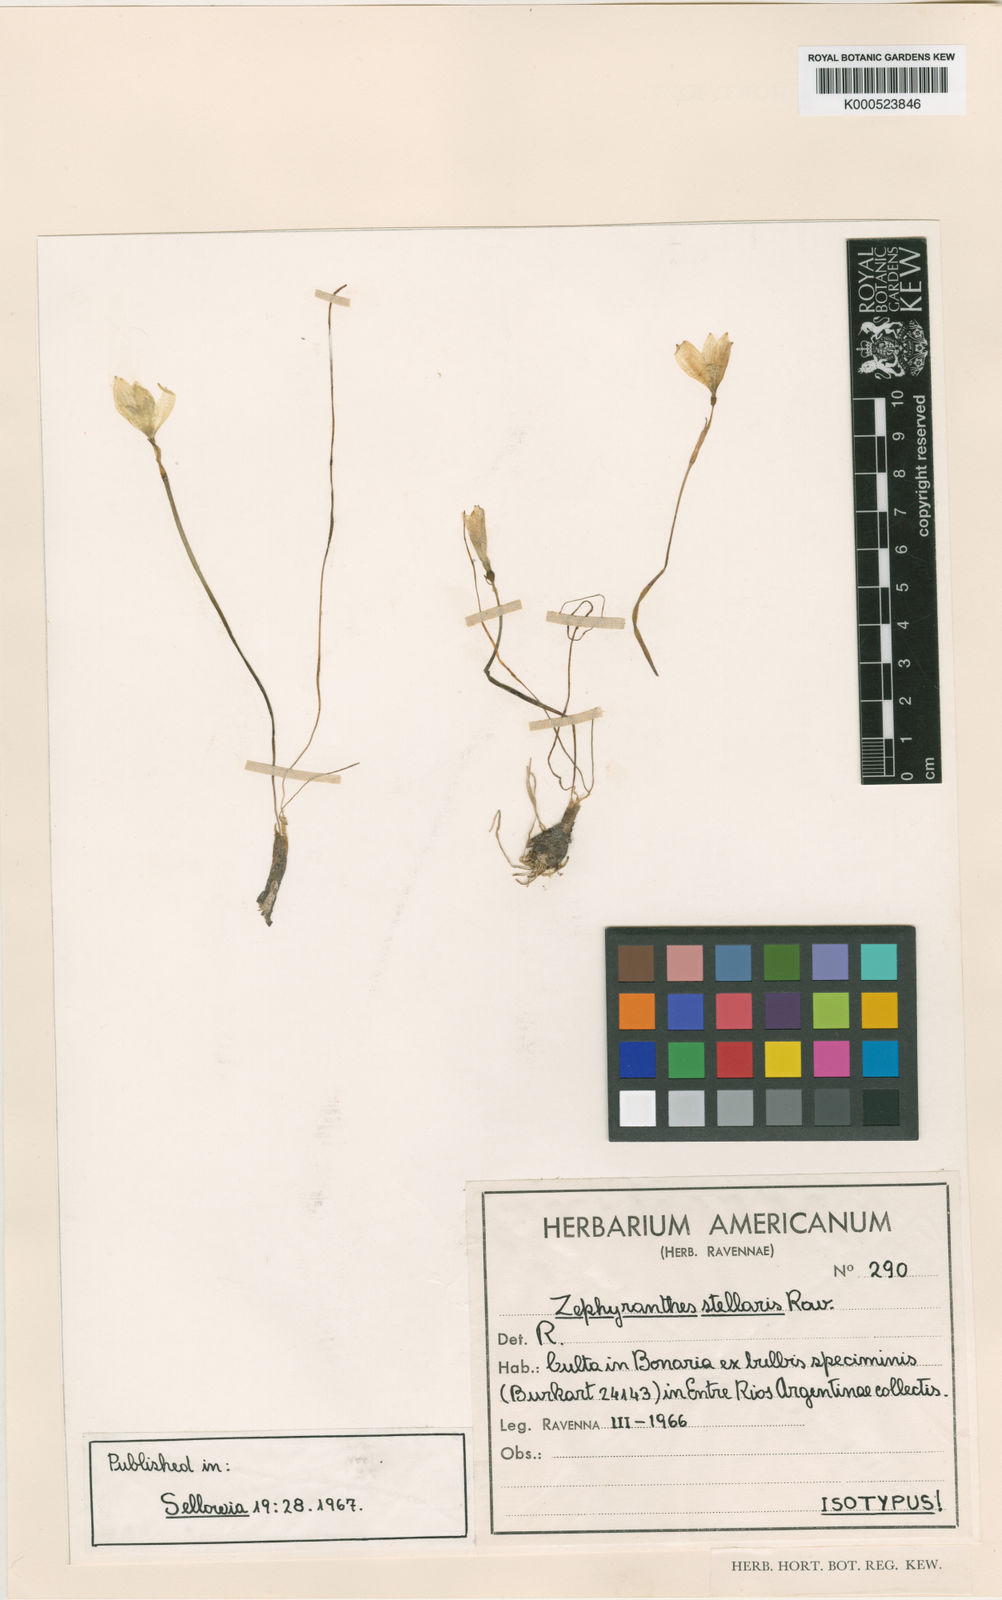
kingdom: Plantae
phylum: Tracheophyta
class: Liliopsida
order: Asparagales
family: Amaryllidaceae
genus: Zephyranthes
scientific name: Zephyranthes stellaris
